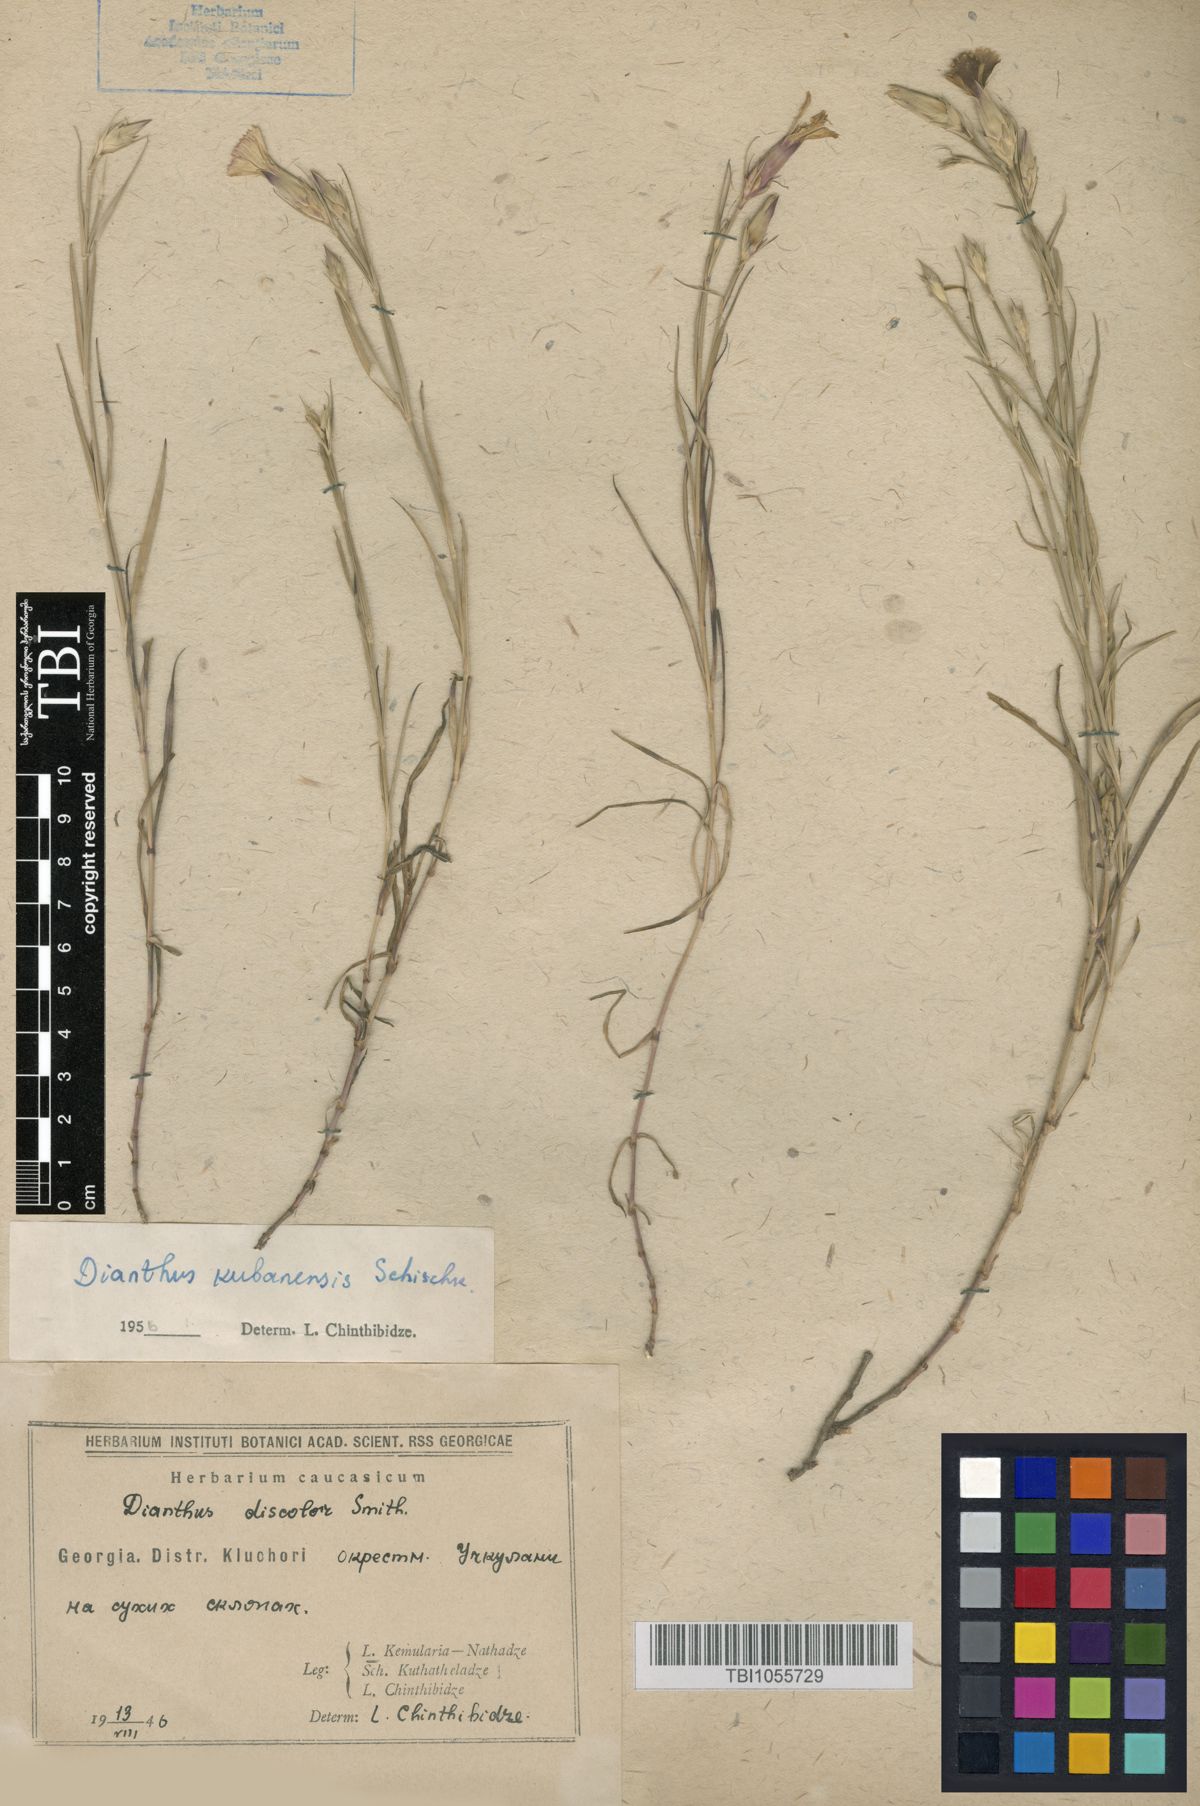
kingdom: Plantae
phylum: Tracheophyta
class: Magnoliopsida
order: Caryophyllales
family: Caryophyllaceae
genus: Dianthus
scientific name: Dianthus
